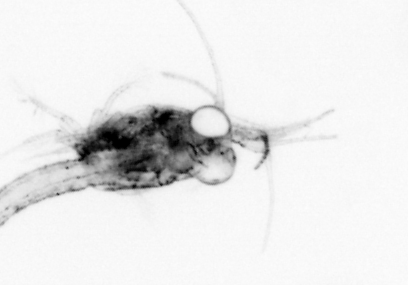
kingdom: Animalia
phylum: Arthropoda
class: Malacostraca
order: Decapoda
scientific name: Decapoda
